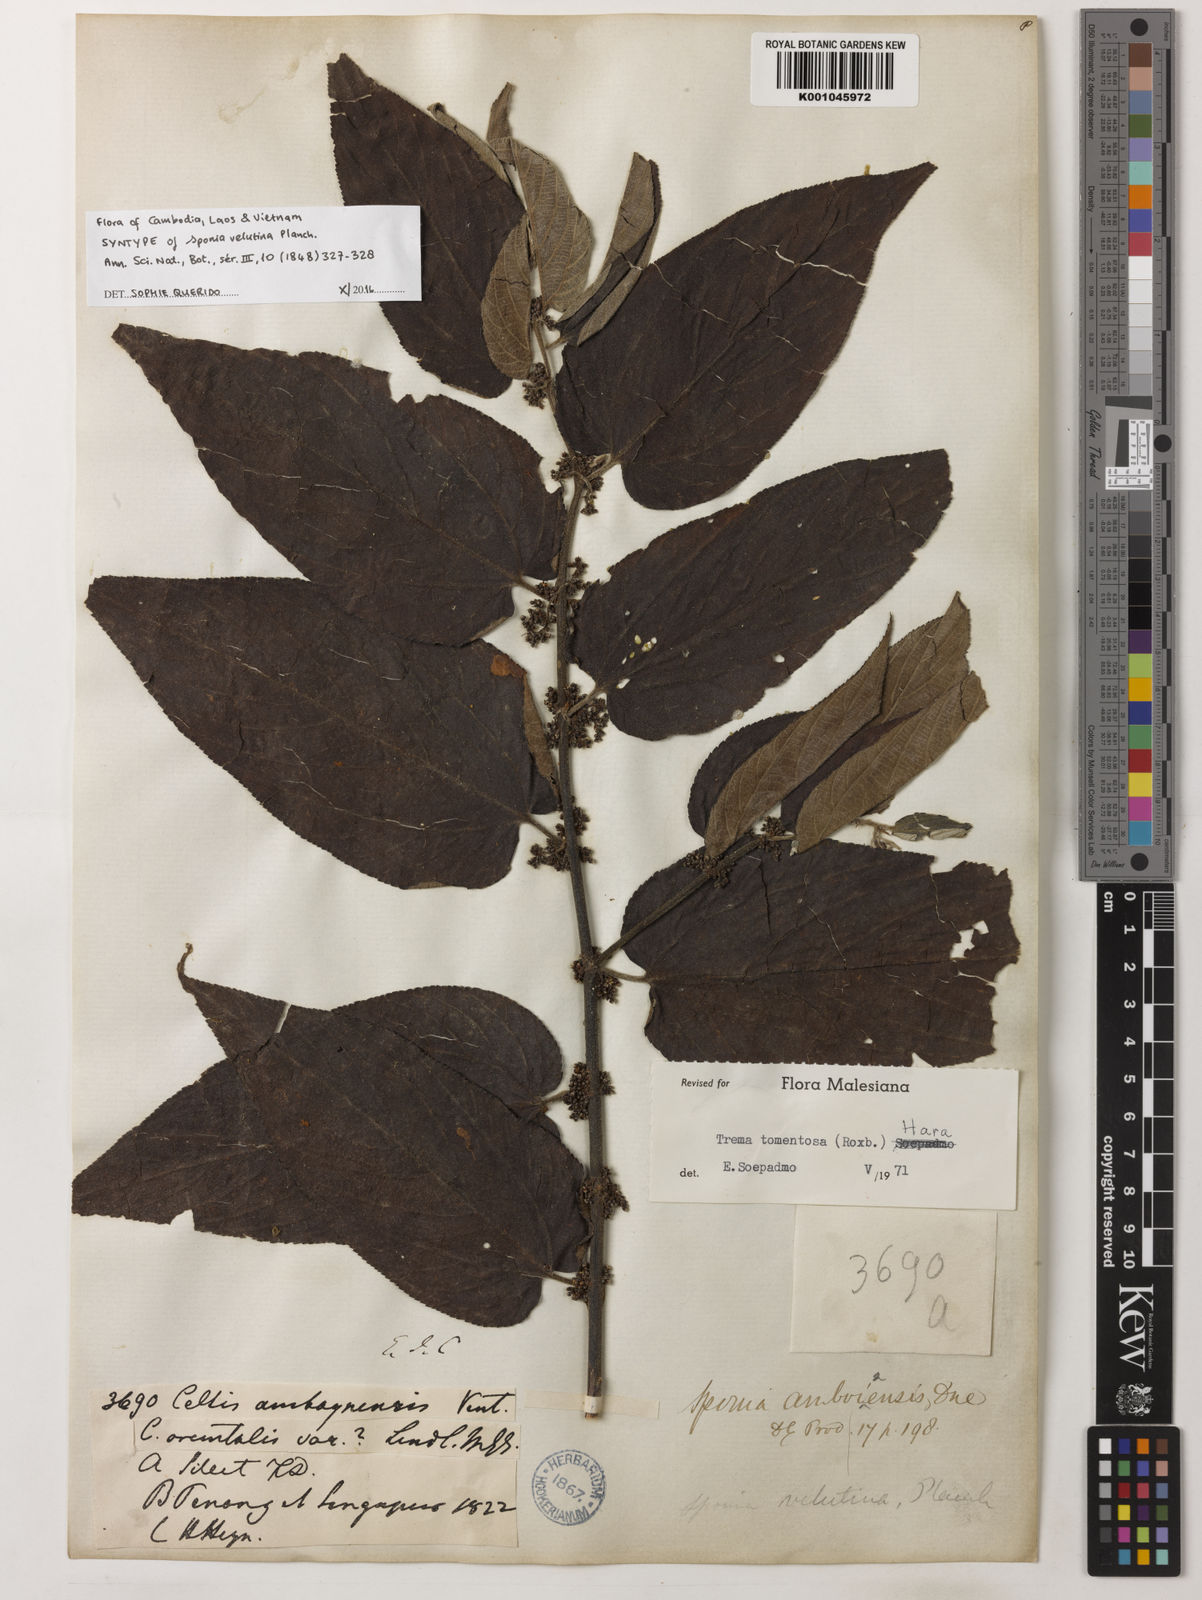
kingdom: Plantae
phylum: Tracheophyta
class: Magnoliopsida
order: Rosales
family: Cannabaceae
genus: Trema
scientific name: Trema tomentosum
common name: Peach-leaf-poisonbush
